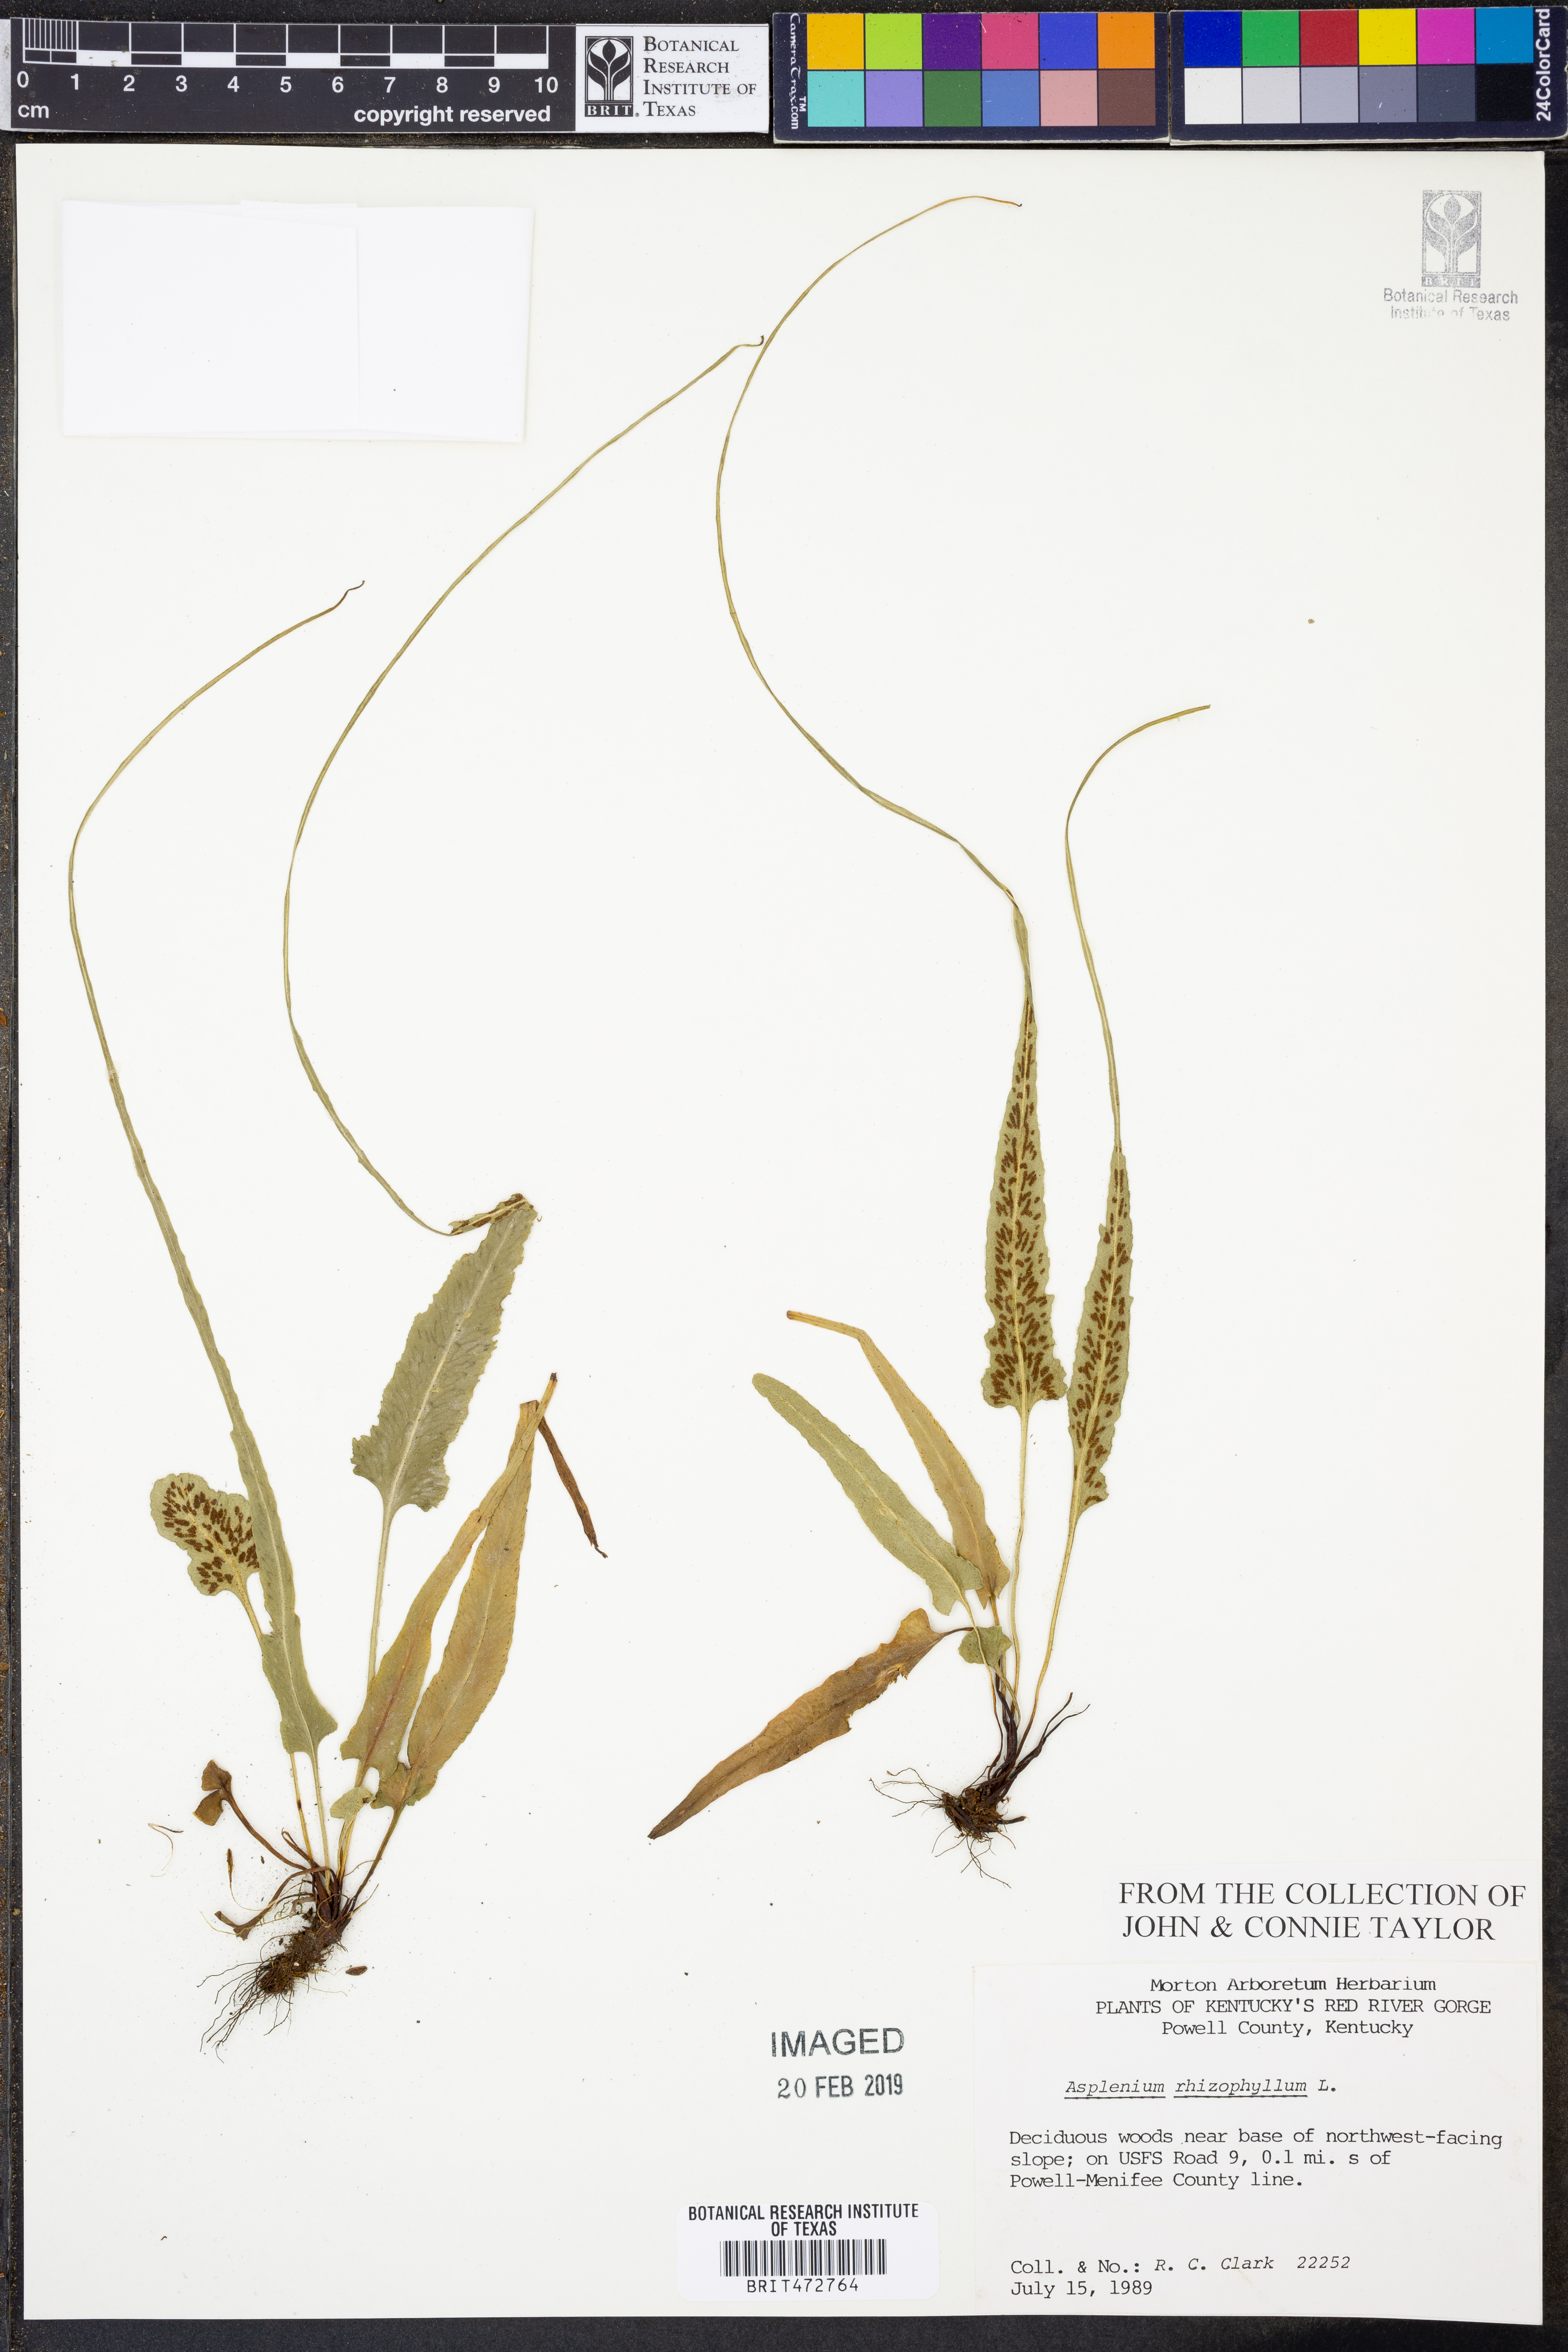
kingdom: Plantae
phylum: Tracheophyta
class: Polypodiopsida
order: Polypodiales
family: Aspleniaceae
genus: Asplenium
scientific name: Asplenium rhizophyllum
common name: Walking fern
